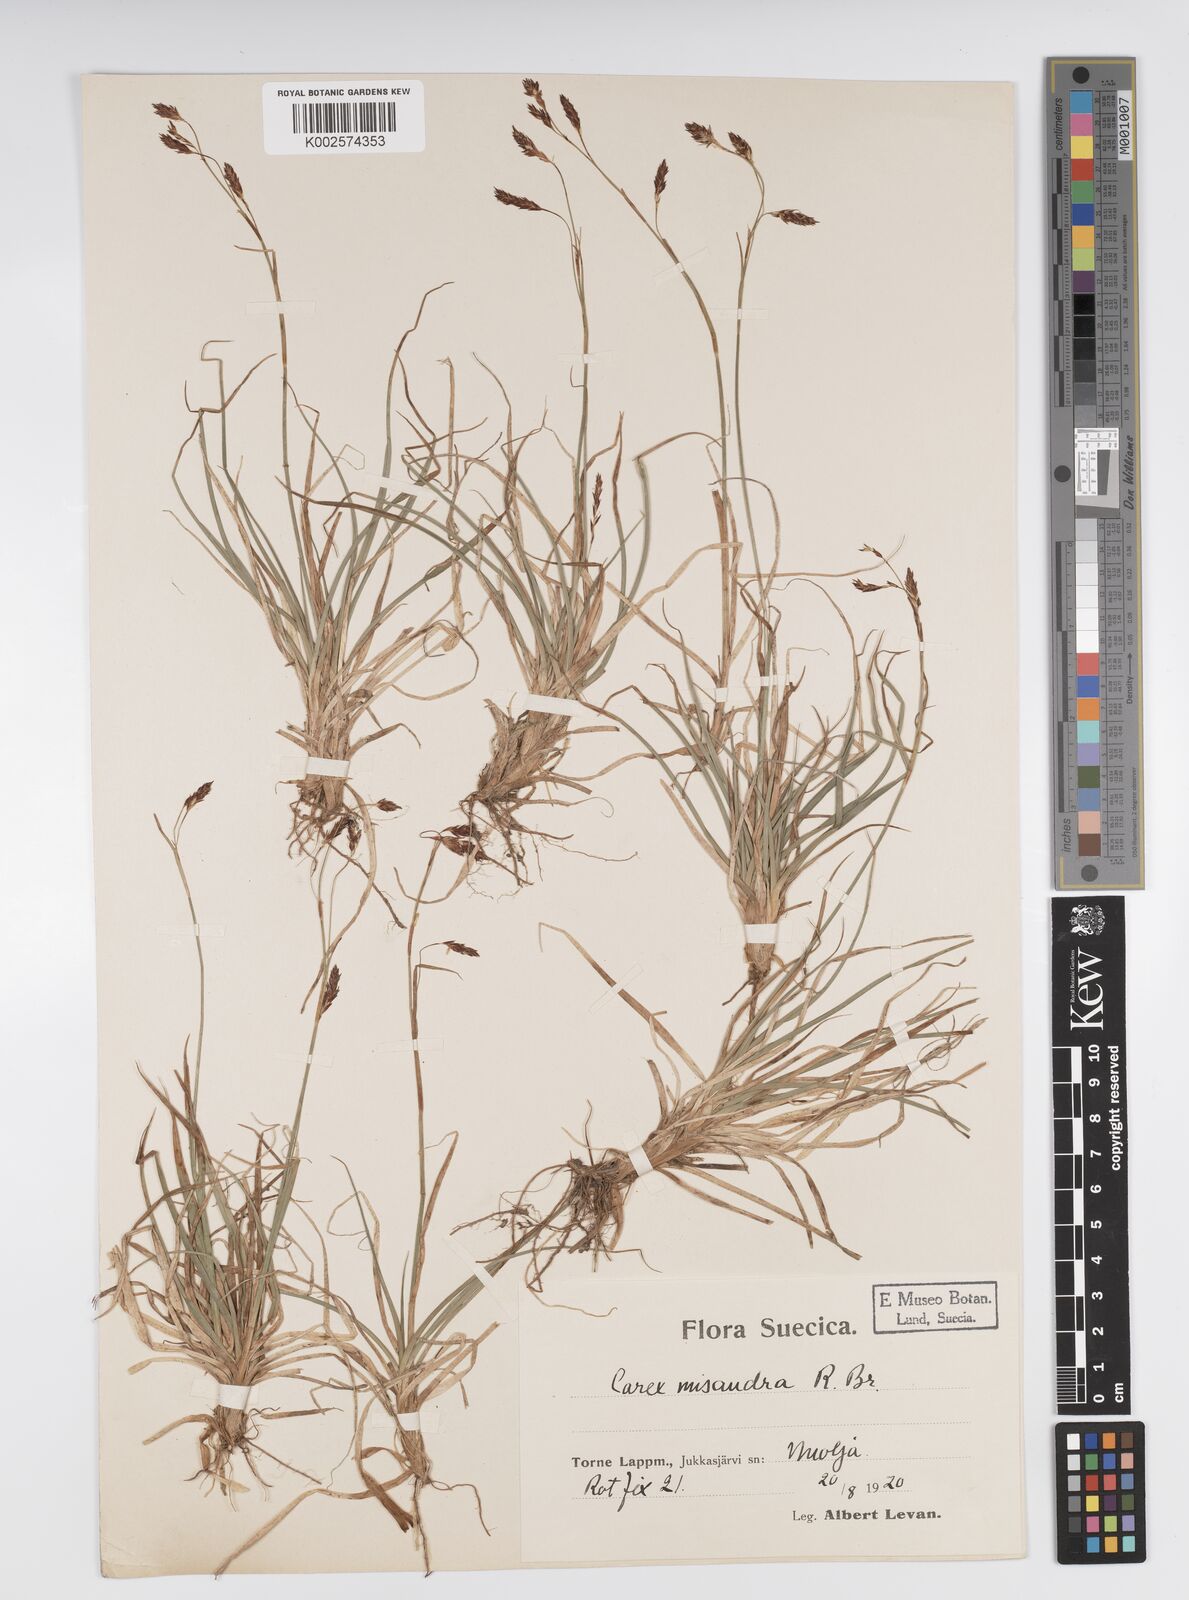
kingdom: Plantae
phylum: Tracheophyta
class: Liliopsida
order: Poales
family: Cyperaceae
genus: Carex
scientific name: Carex fuliginosa
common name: Few-flowered sedge
